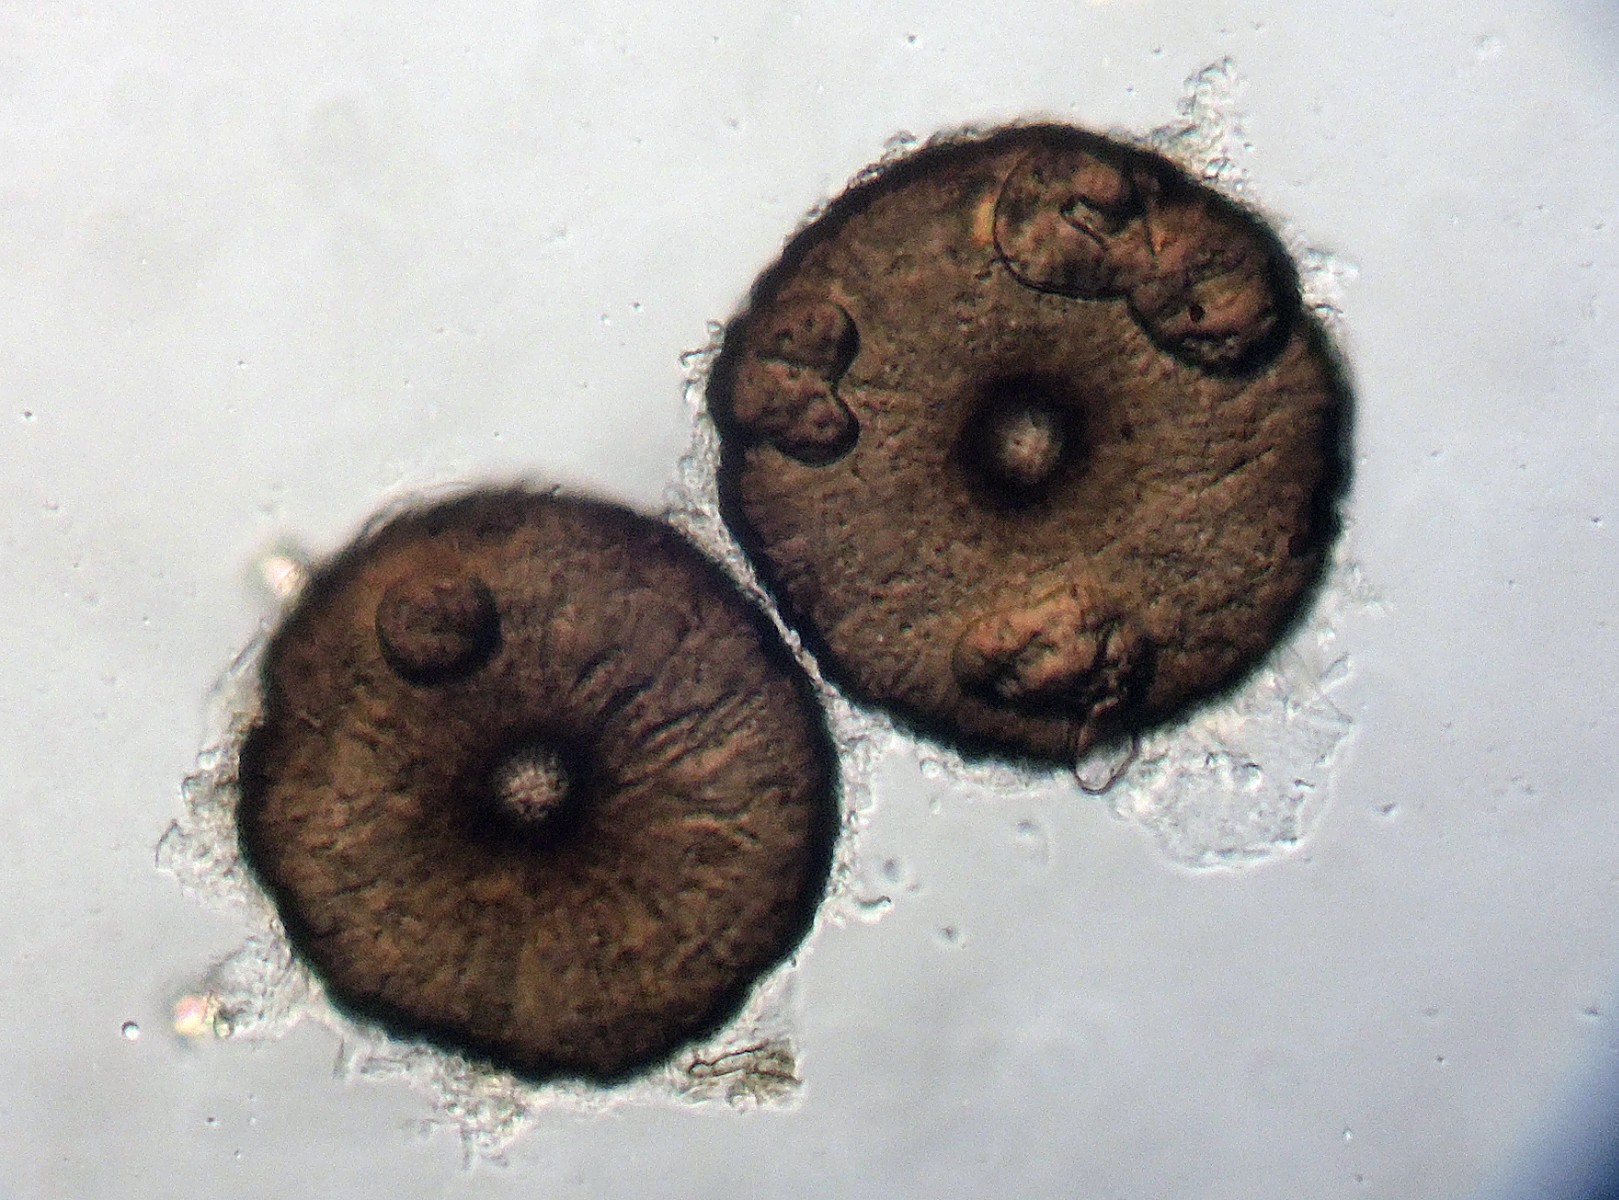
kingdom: Fungi
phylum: Ascomycota
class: Dothideomycetes
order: Microthyriales
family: Microthyriaceae
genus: Lichenopeltella
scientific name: Lichenopeltella pinophylla
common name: fyrrenåle-tykplet
